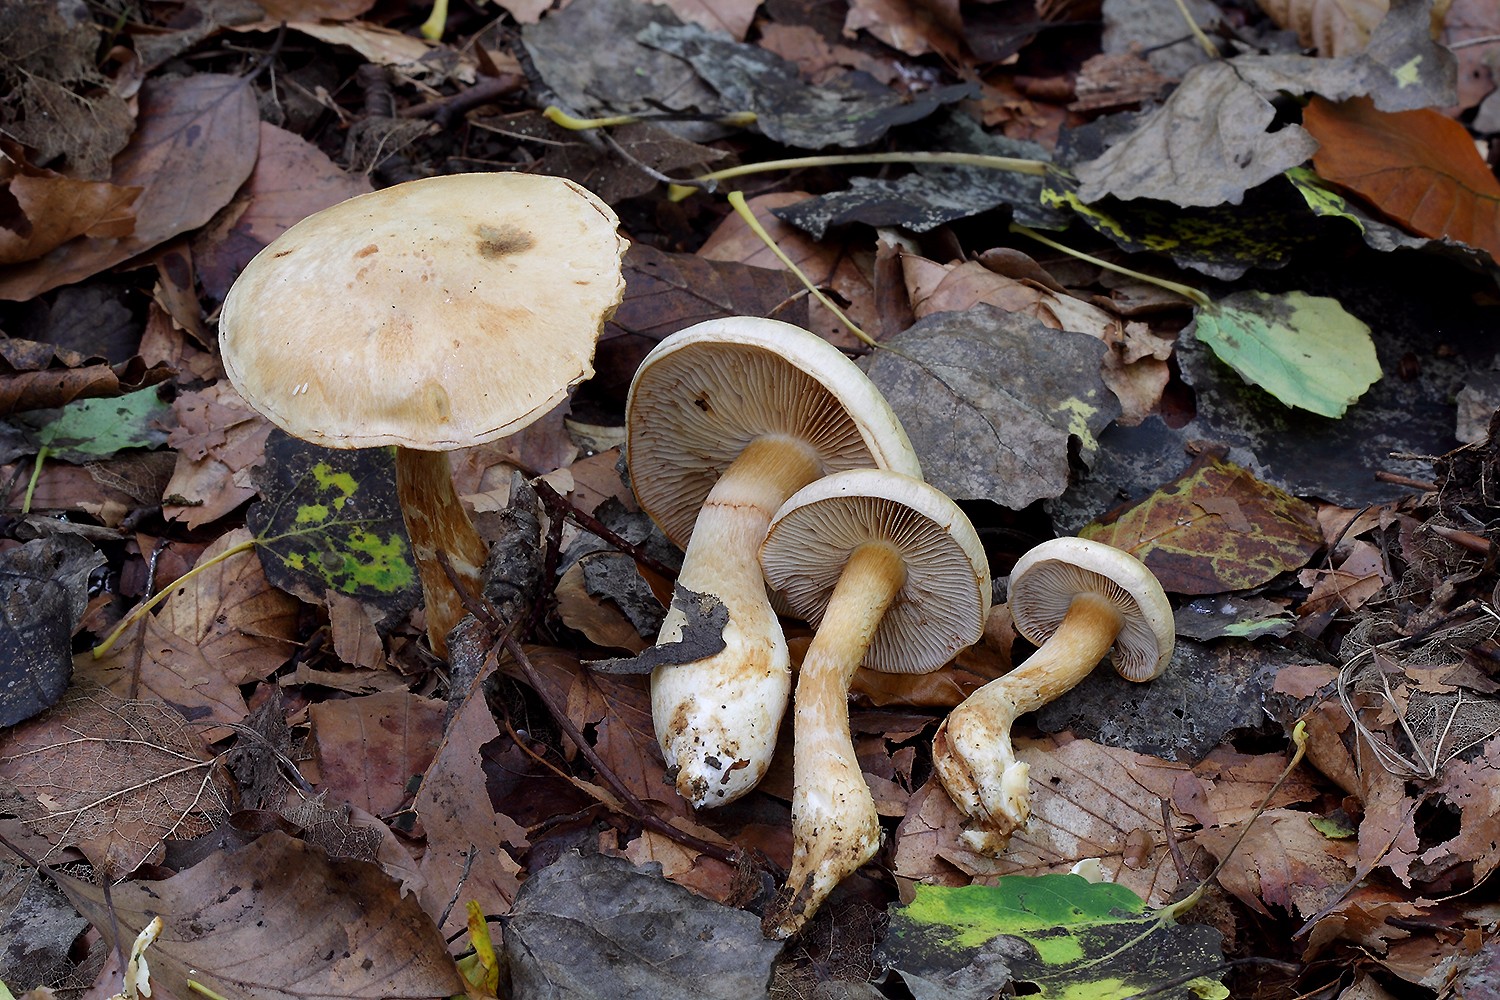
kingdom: Fungi
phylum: Basidiomycota
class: Agaricomycetes
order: Agaricales
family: Cortinariaceae
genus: Phlegmacium
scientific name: Phlegmacium argutum
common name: hvidlig slørhat
